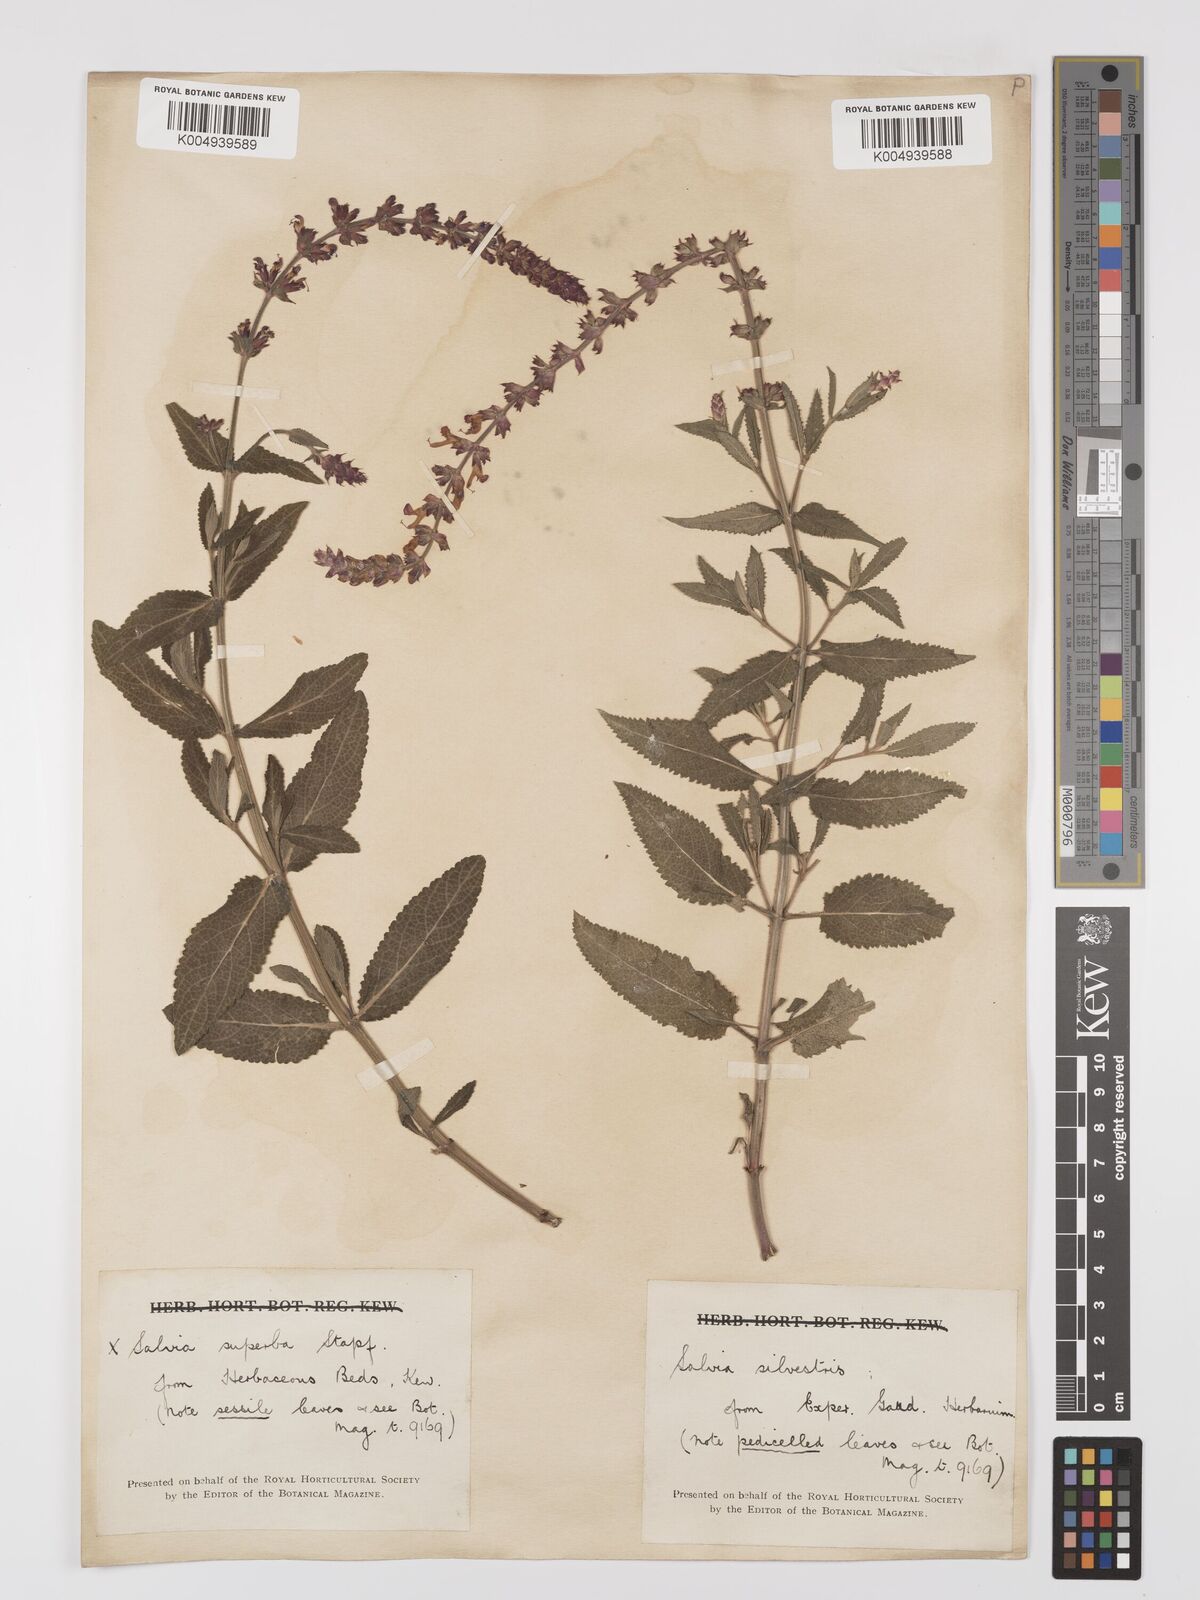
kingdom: Plantae
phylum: Tracheophyta
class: Magnoliopsida
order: Lamiales
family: Lamiaceae
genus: Salvia
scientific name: Salvia
